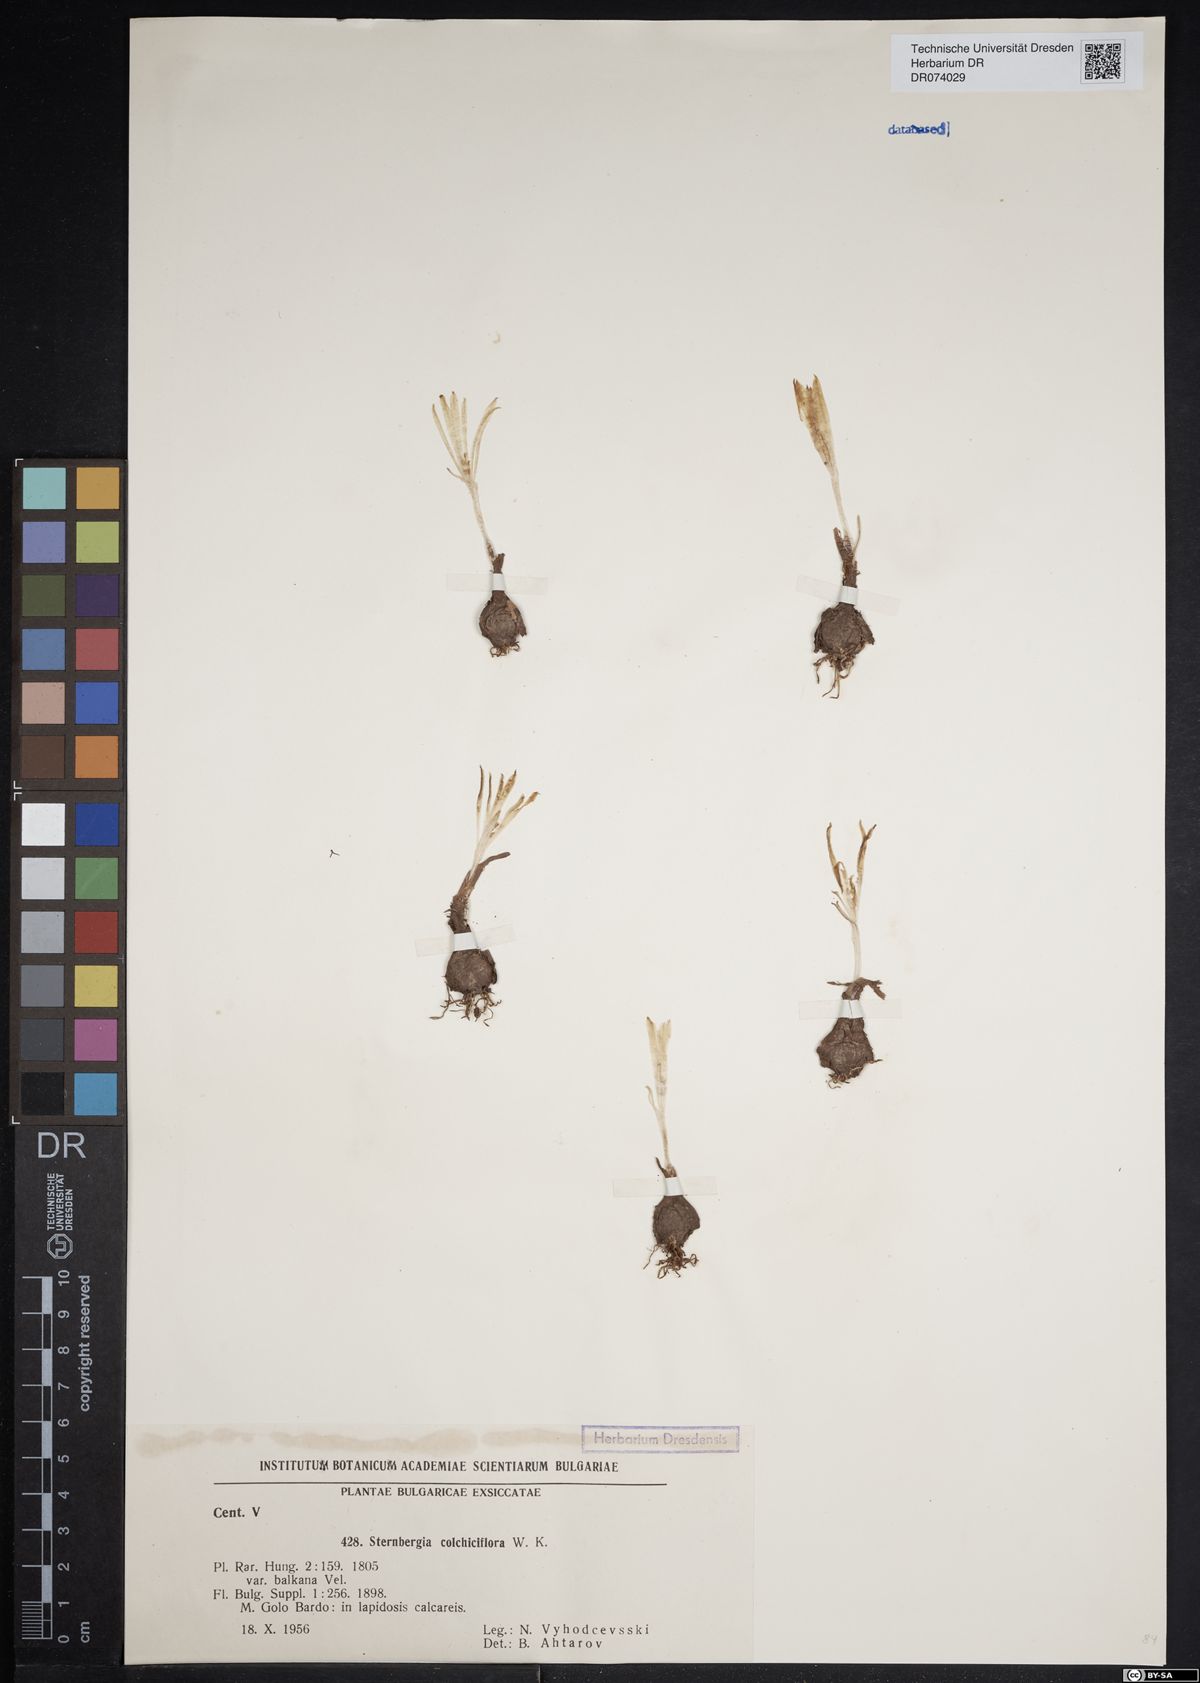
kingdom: Plantae
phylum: Tracheophyta
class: Liliopsida
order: Asparagales
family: Amaryllidaceae
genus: Sternbergia
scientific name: Sternbergia colchiciflora
